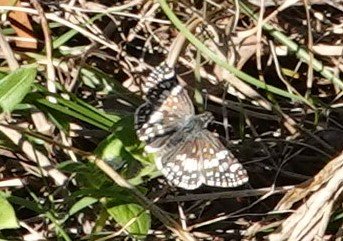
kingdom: Animalia
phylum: Arthropoda
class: Insecta
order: Lepidoptera
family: Hesperiidae
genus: Pyrgus
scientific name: Pyrgus communis
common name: White Checkered-Skipper
